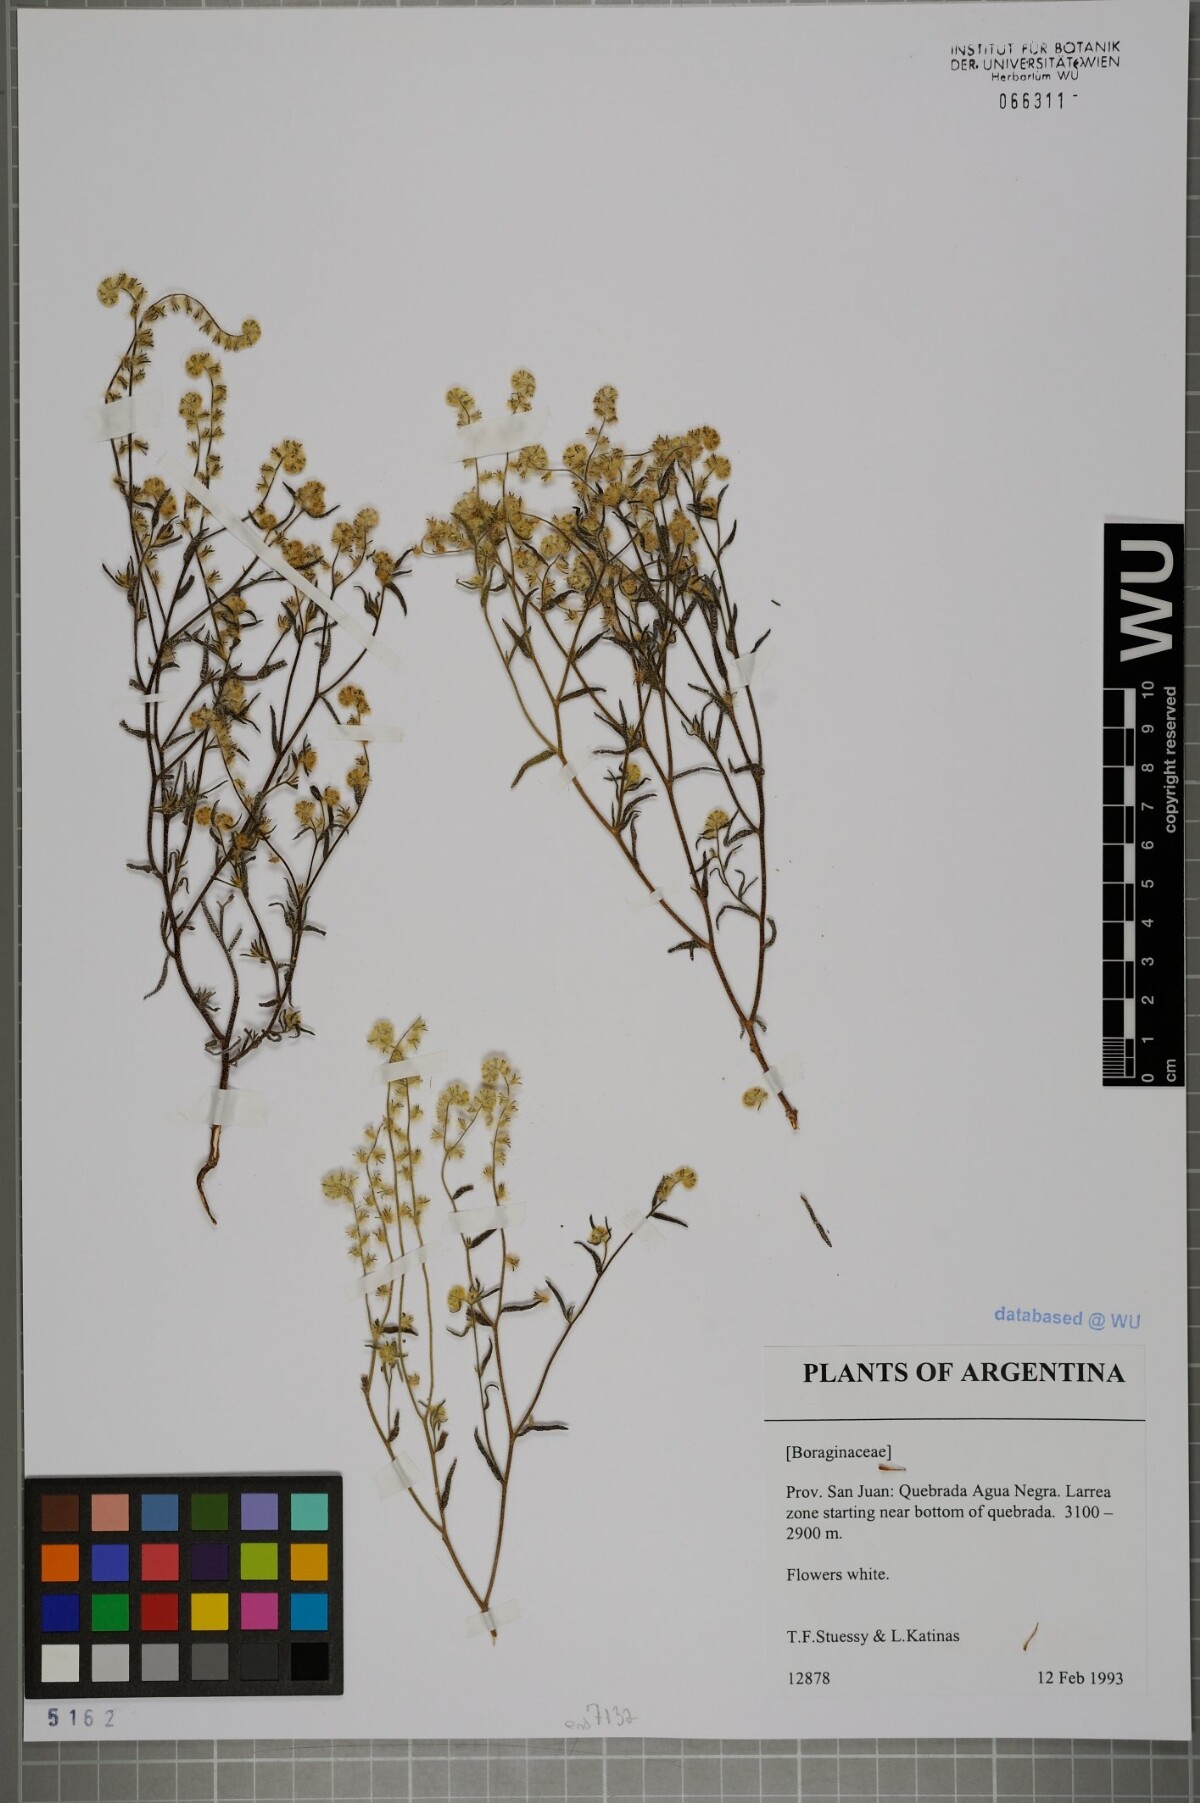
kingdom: Plantae
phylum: Tracheophyta
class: Magnoliopsida
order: Boraginales
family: Boraginaceae
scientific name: Boraginaceae
